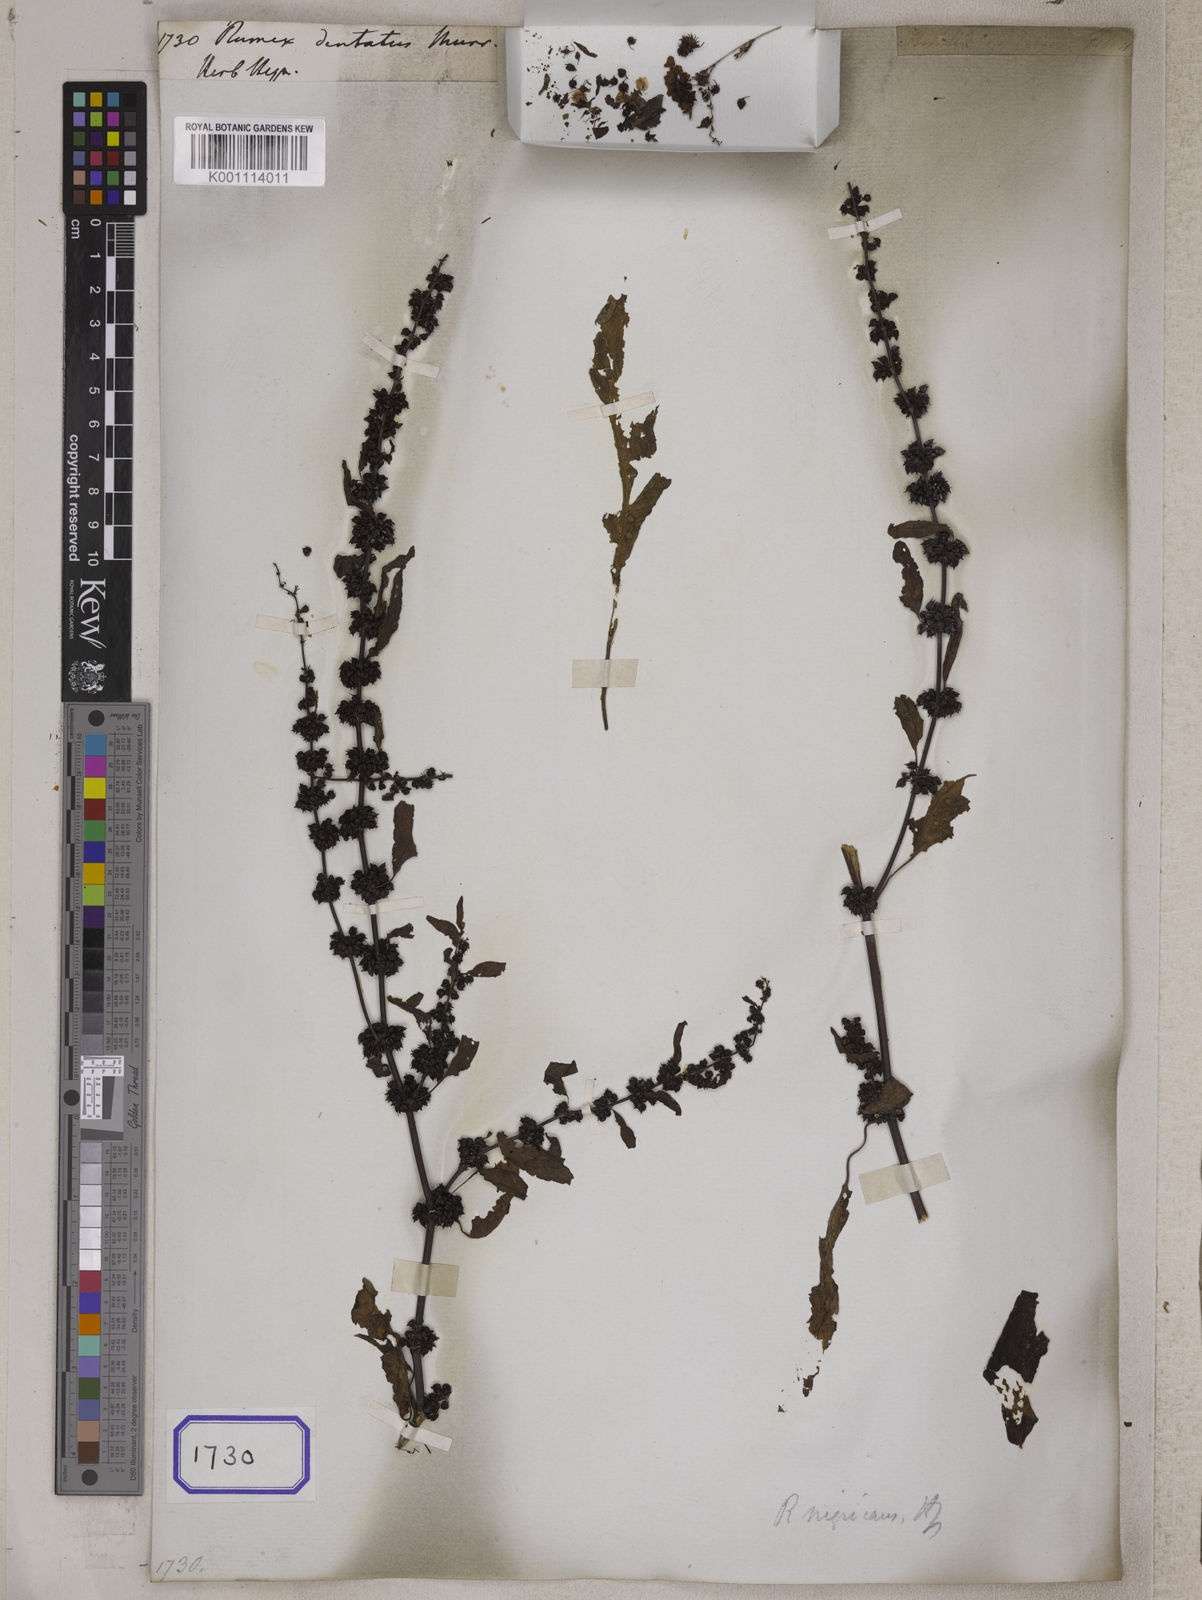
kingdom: Plantae
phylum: Tracheophyta
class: Magnoliopsida
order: Caryophyllales
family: Polygonaceae
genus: Rumex
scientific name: Rumex
